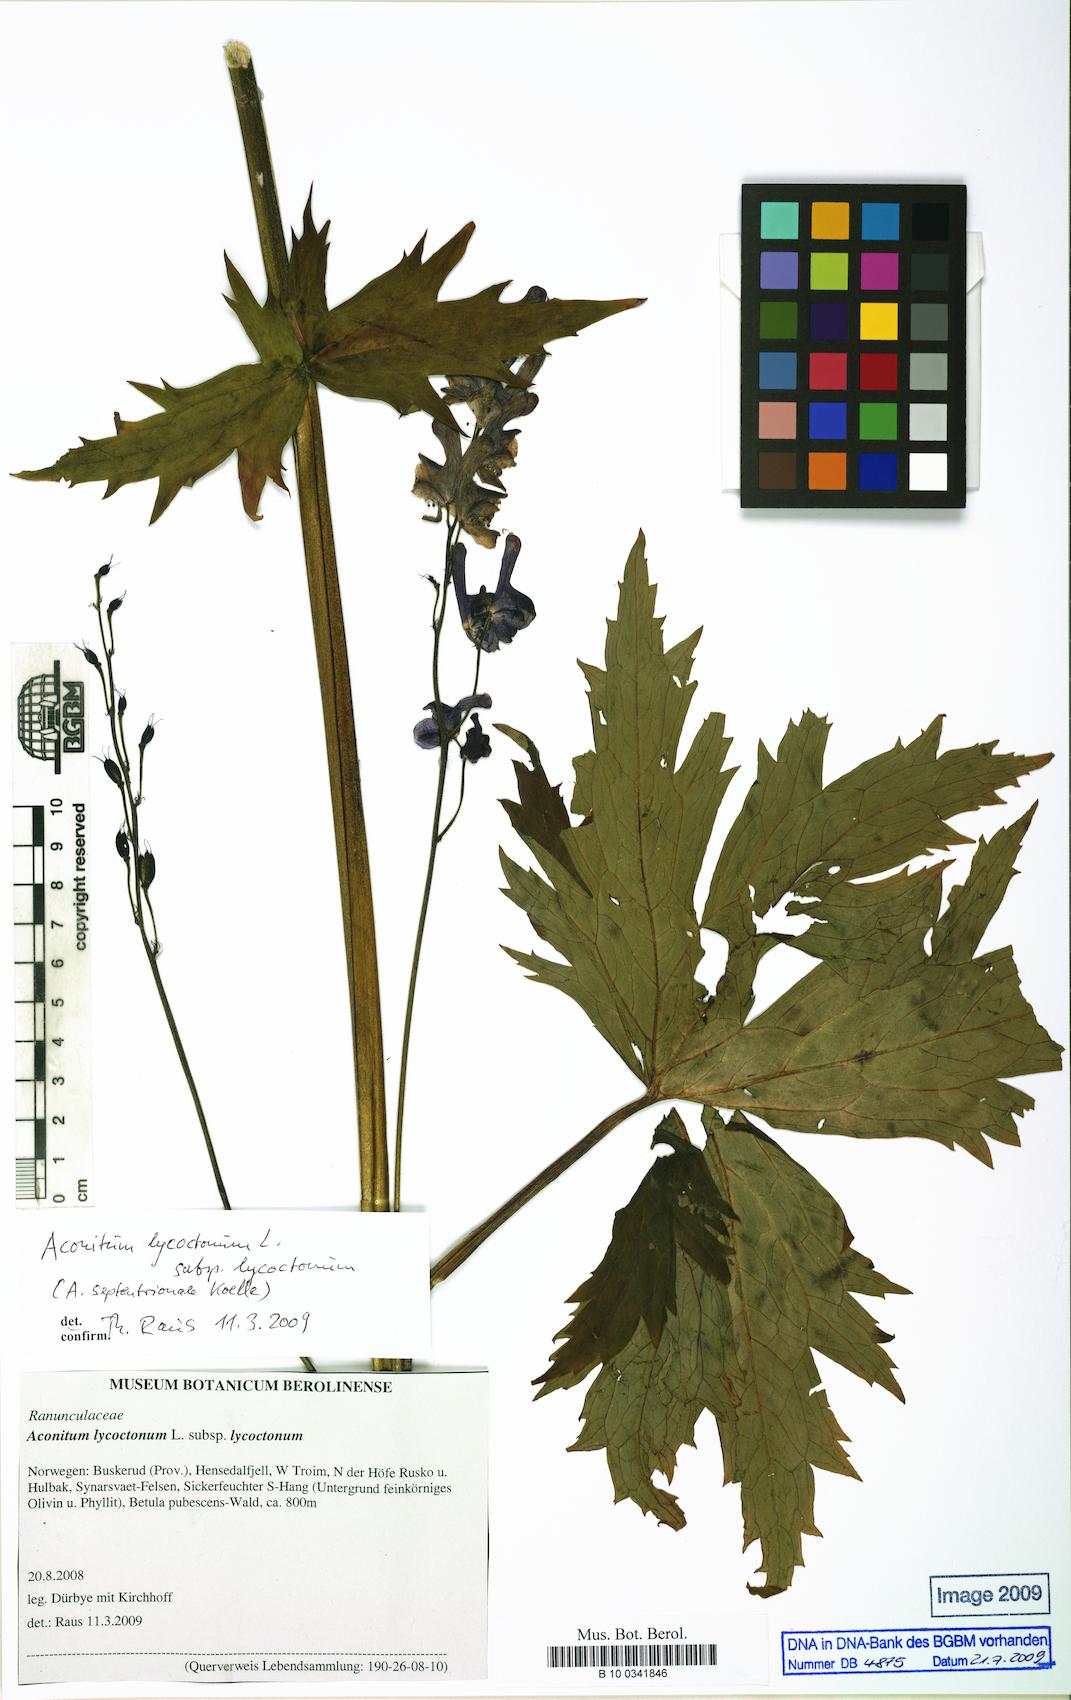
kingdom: Plantae
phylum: Tracheophyta
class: Magnoliopsida
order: Ranunculales
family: Ranunculaceae
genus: Aconitum
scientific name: Aconitum lycoctonum
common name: Wolf's-bane
